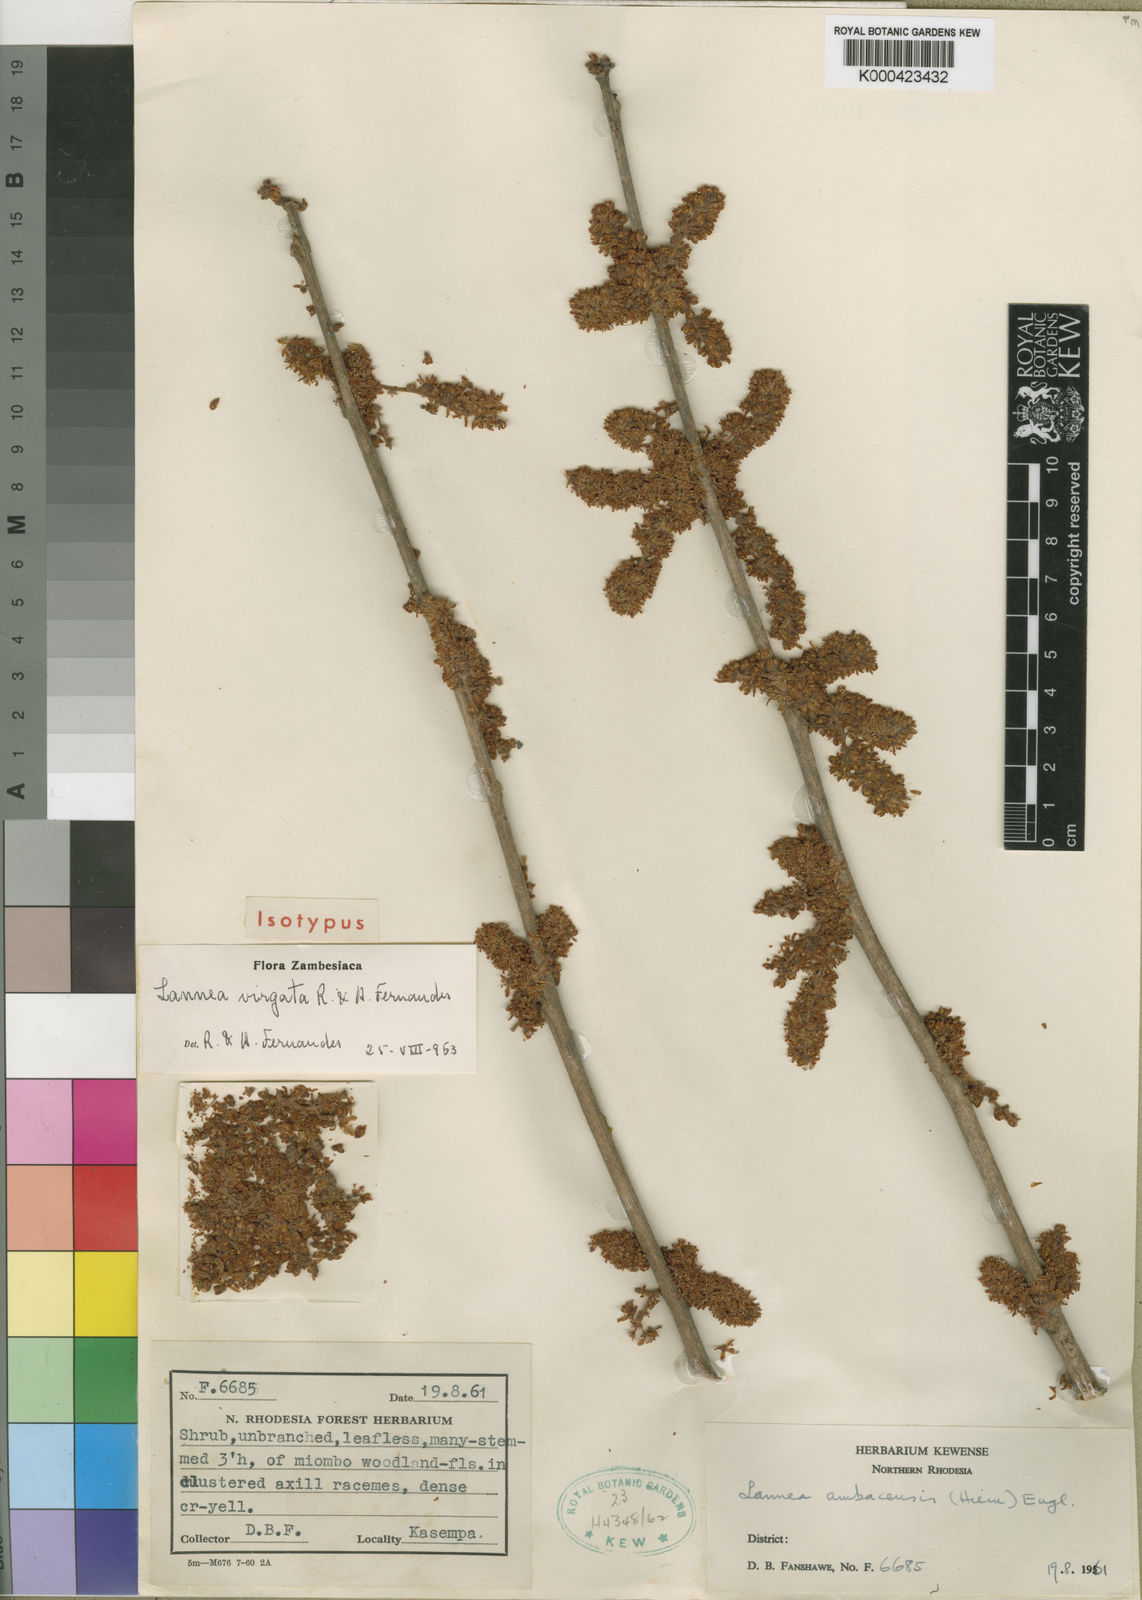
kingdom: Plantae
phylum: Tracheophyta
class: Magnoliopsida
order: Sapindales
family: Anacardiaceae
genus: Lannea
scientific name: Lannea virgata
